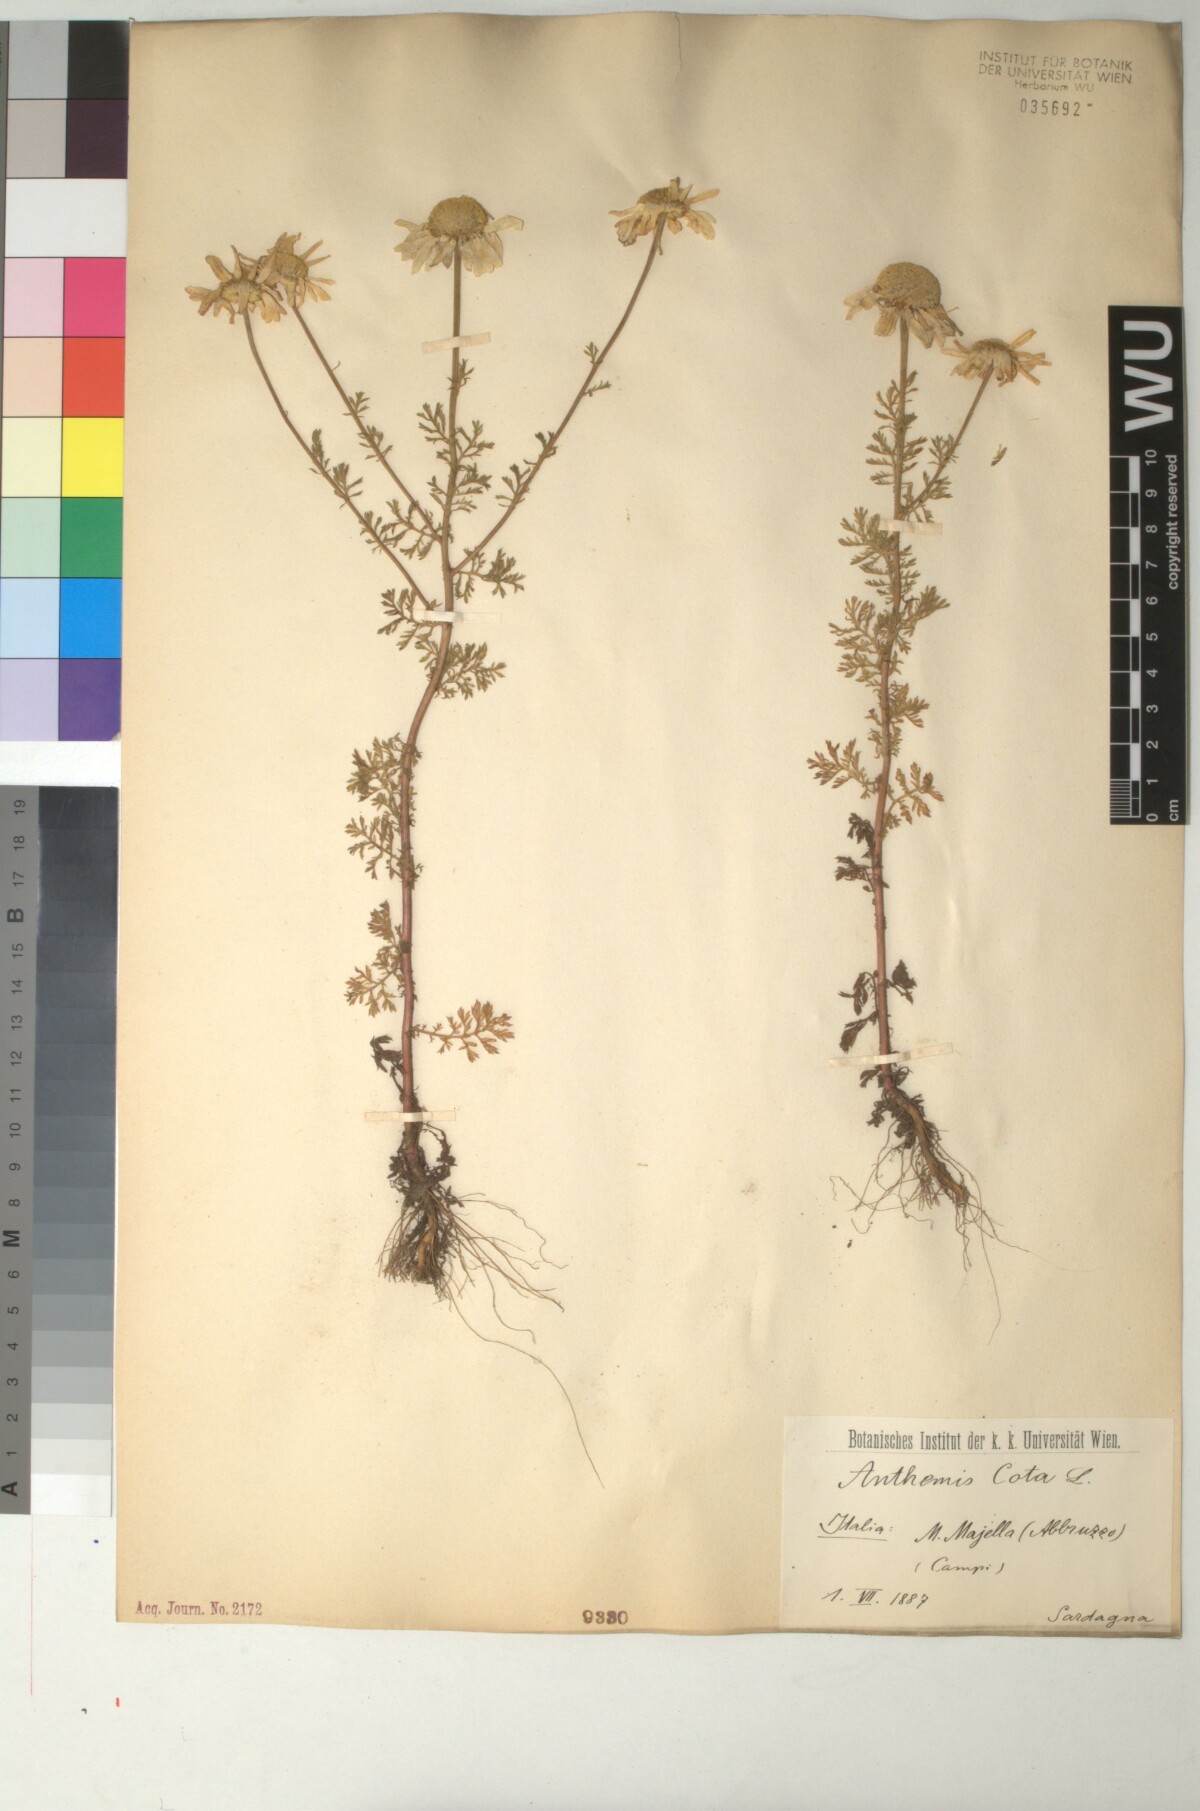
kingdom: Plantae
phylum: Tracheophyta
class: Magnoliopsida
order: Asterales
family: Asteraceae
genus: Cota
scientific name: Cota altissima
